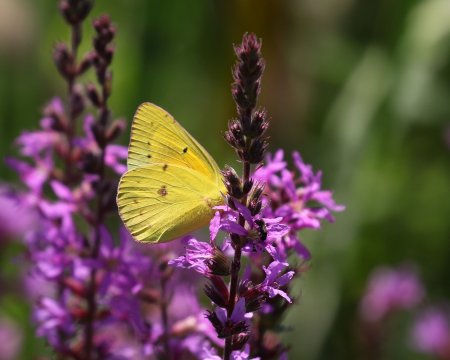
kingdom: Animalia
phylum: Arthropoda
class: Insecta
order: Lepidoptera
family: Pieridae
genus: Colias
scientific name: Colias eurytheme
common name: Orange Sulphur
